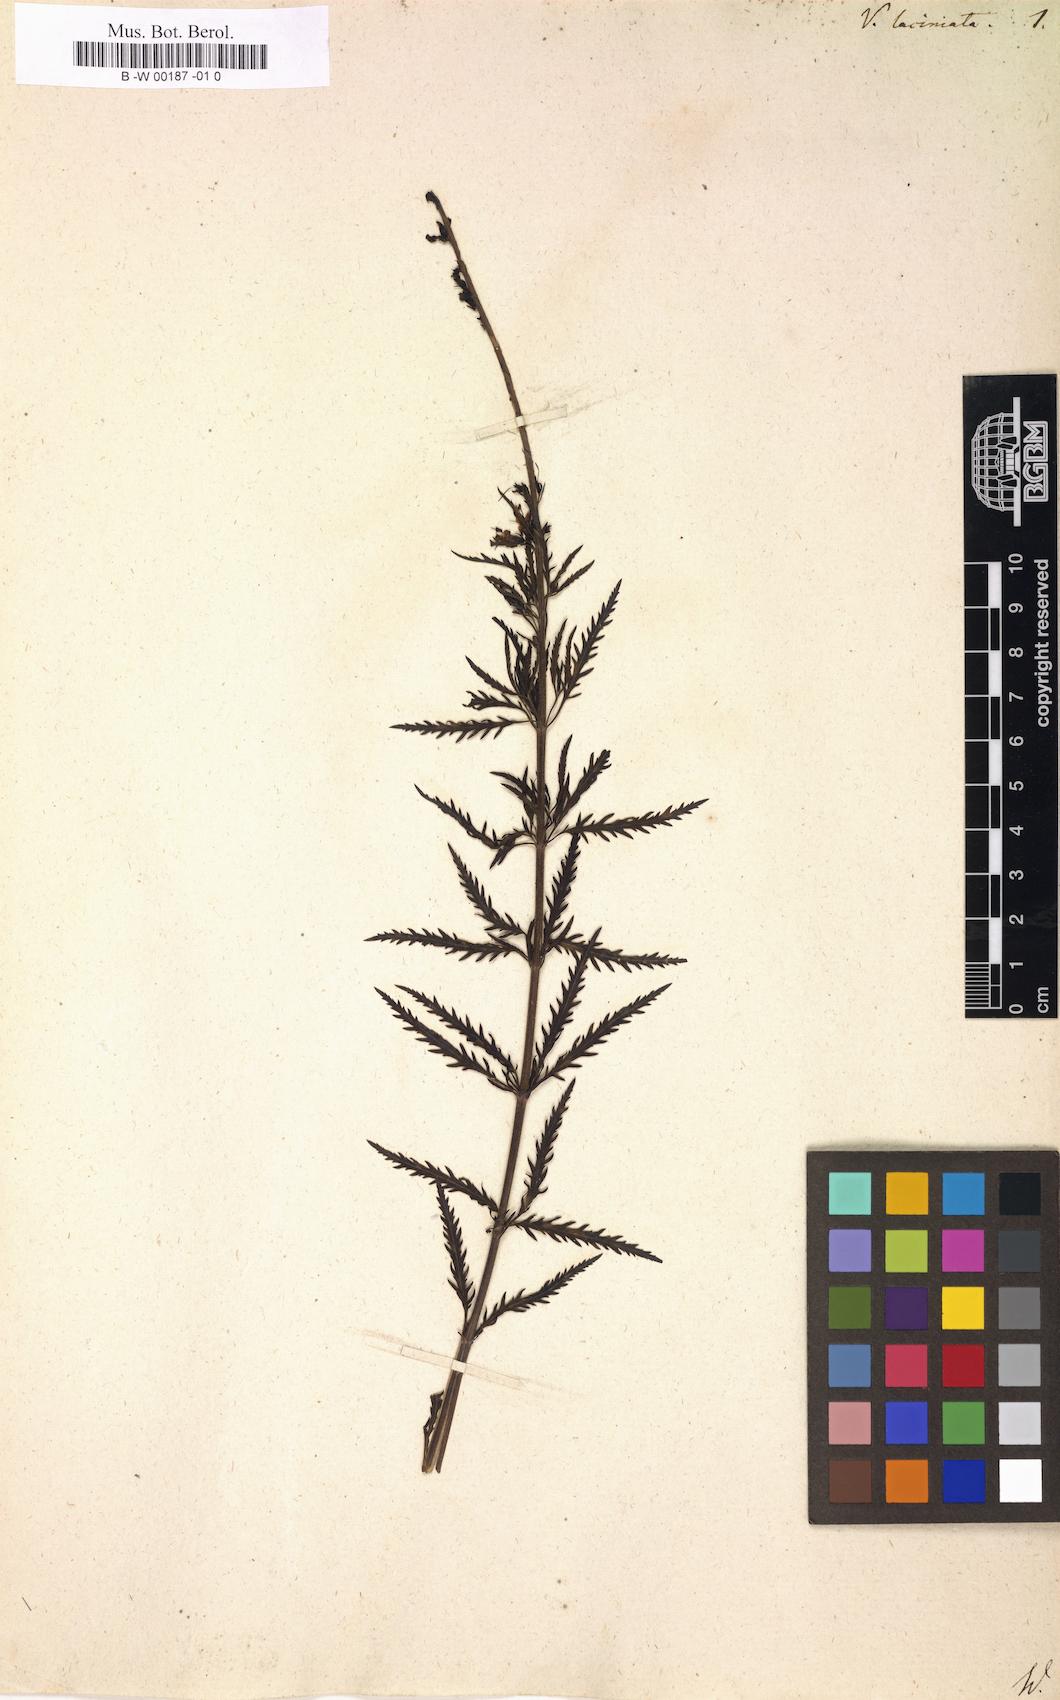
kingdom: Plantae
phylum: Tracheophyta
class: Magnoliopsida
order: Lamiales
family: Plantaginaceae
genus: Veronica
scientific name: Veronica laciniata
